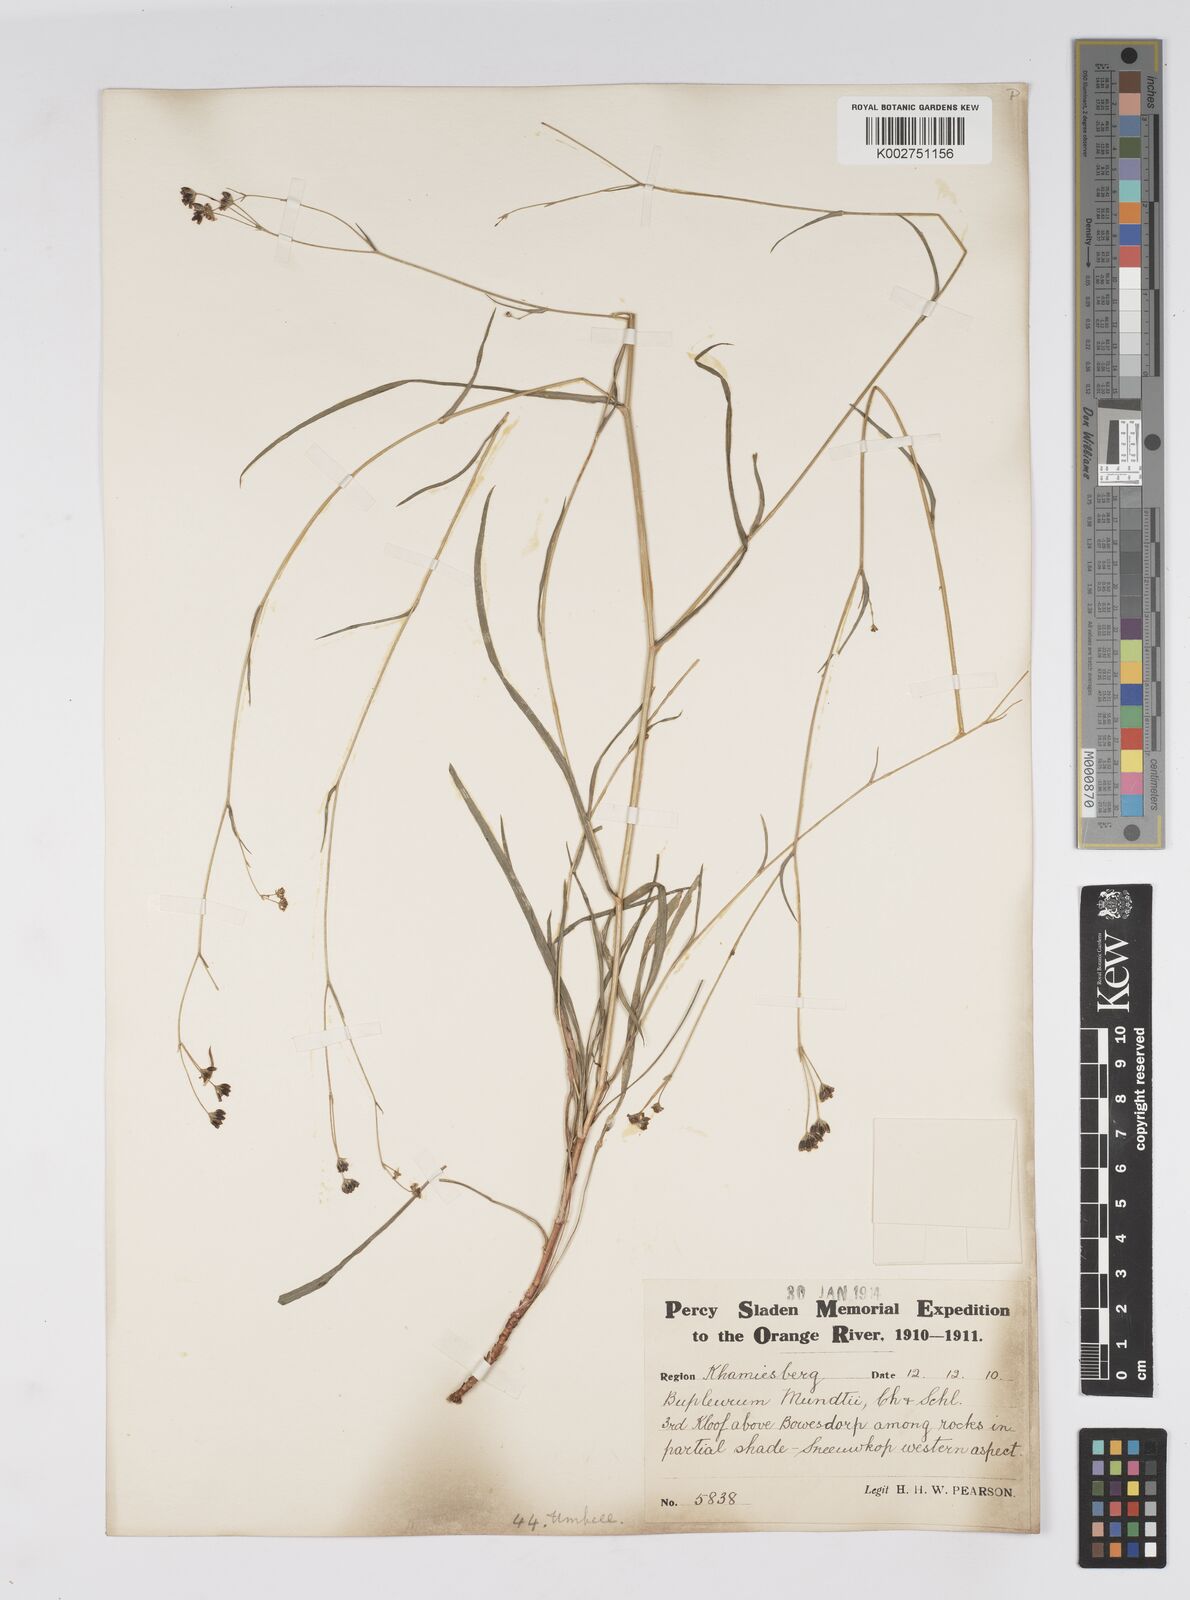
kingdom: Plantae
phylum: Tracheophyta
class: Magnoliopsida
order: Apiales
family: Apiaceae
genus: Bupleurum
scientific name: Bupleurum mundii
